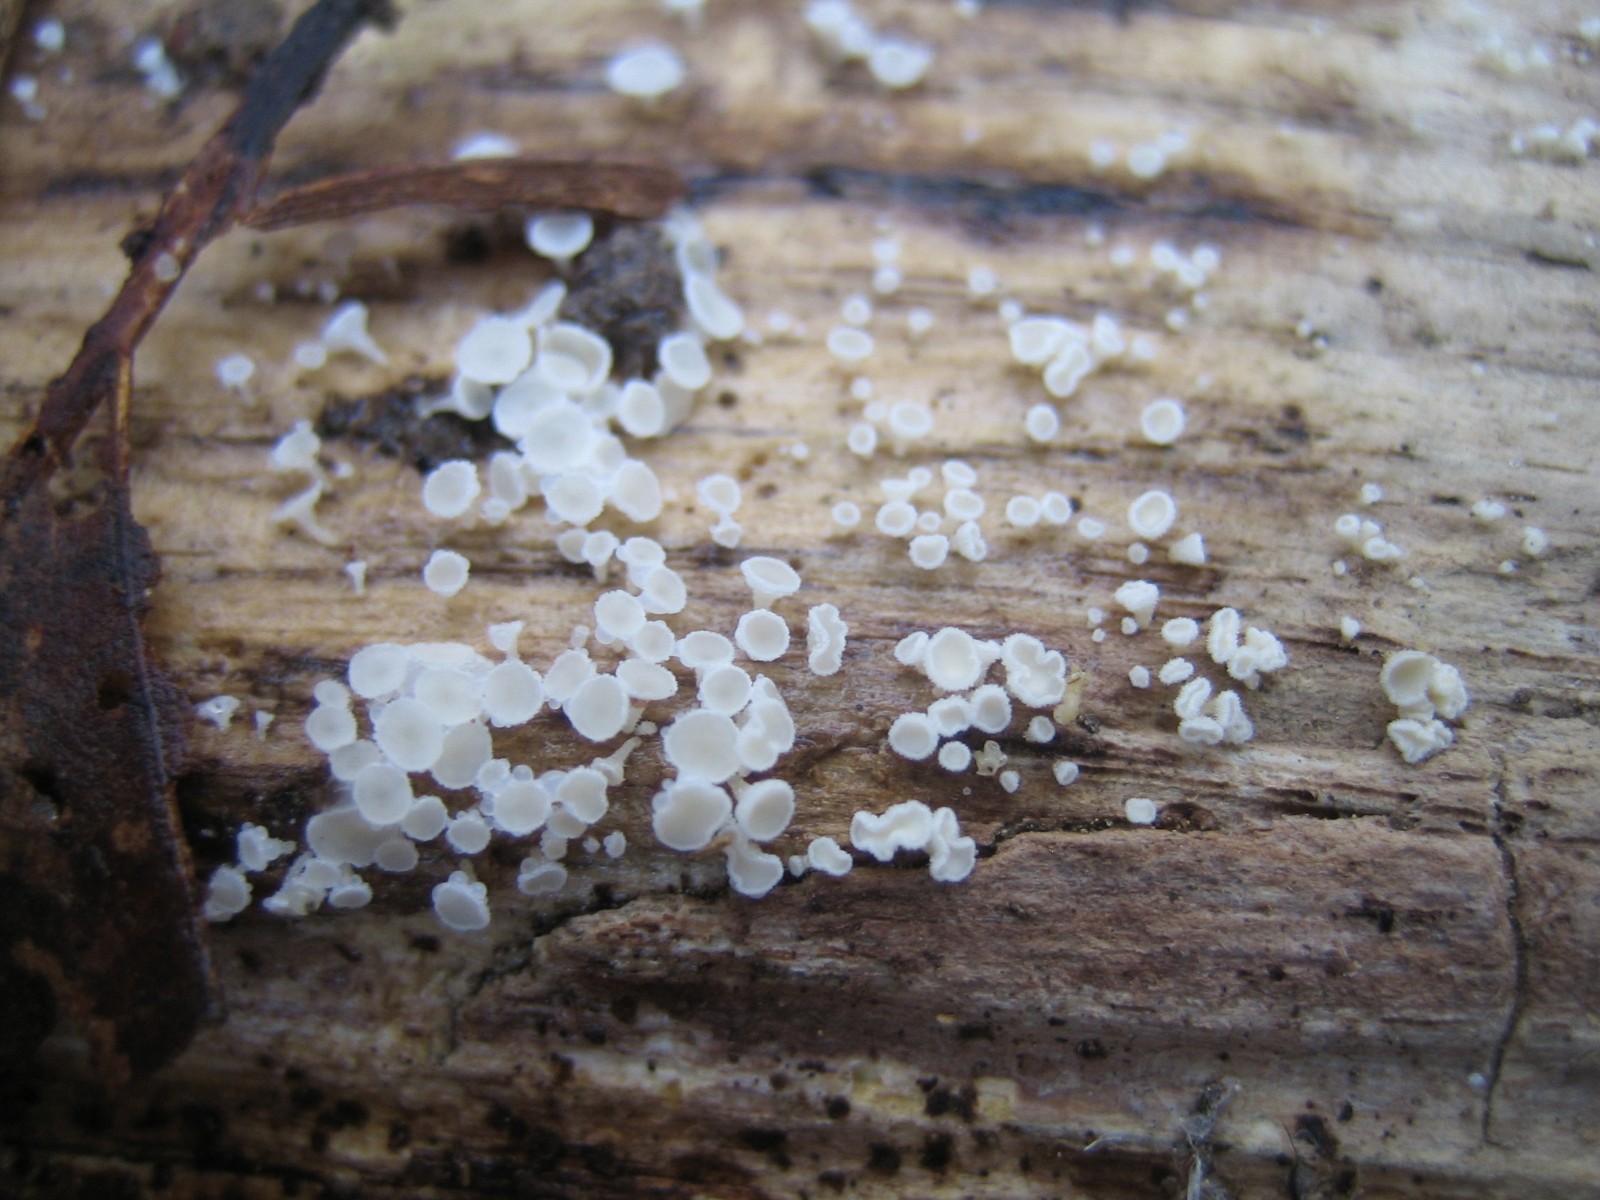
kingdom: Fungi
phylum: Ascomycota
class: Leotiomycetes
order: Helotiales
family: Lachnaceae
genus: Lachnum
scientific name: Lachnum
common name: frynseskive
